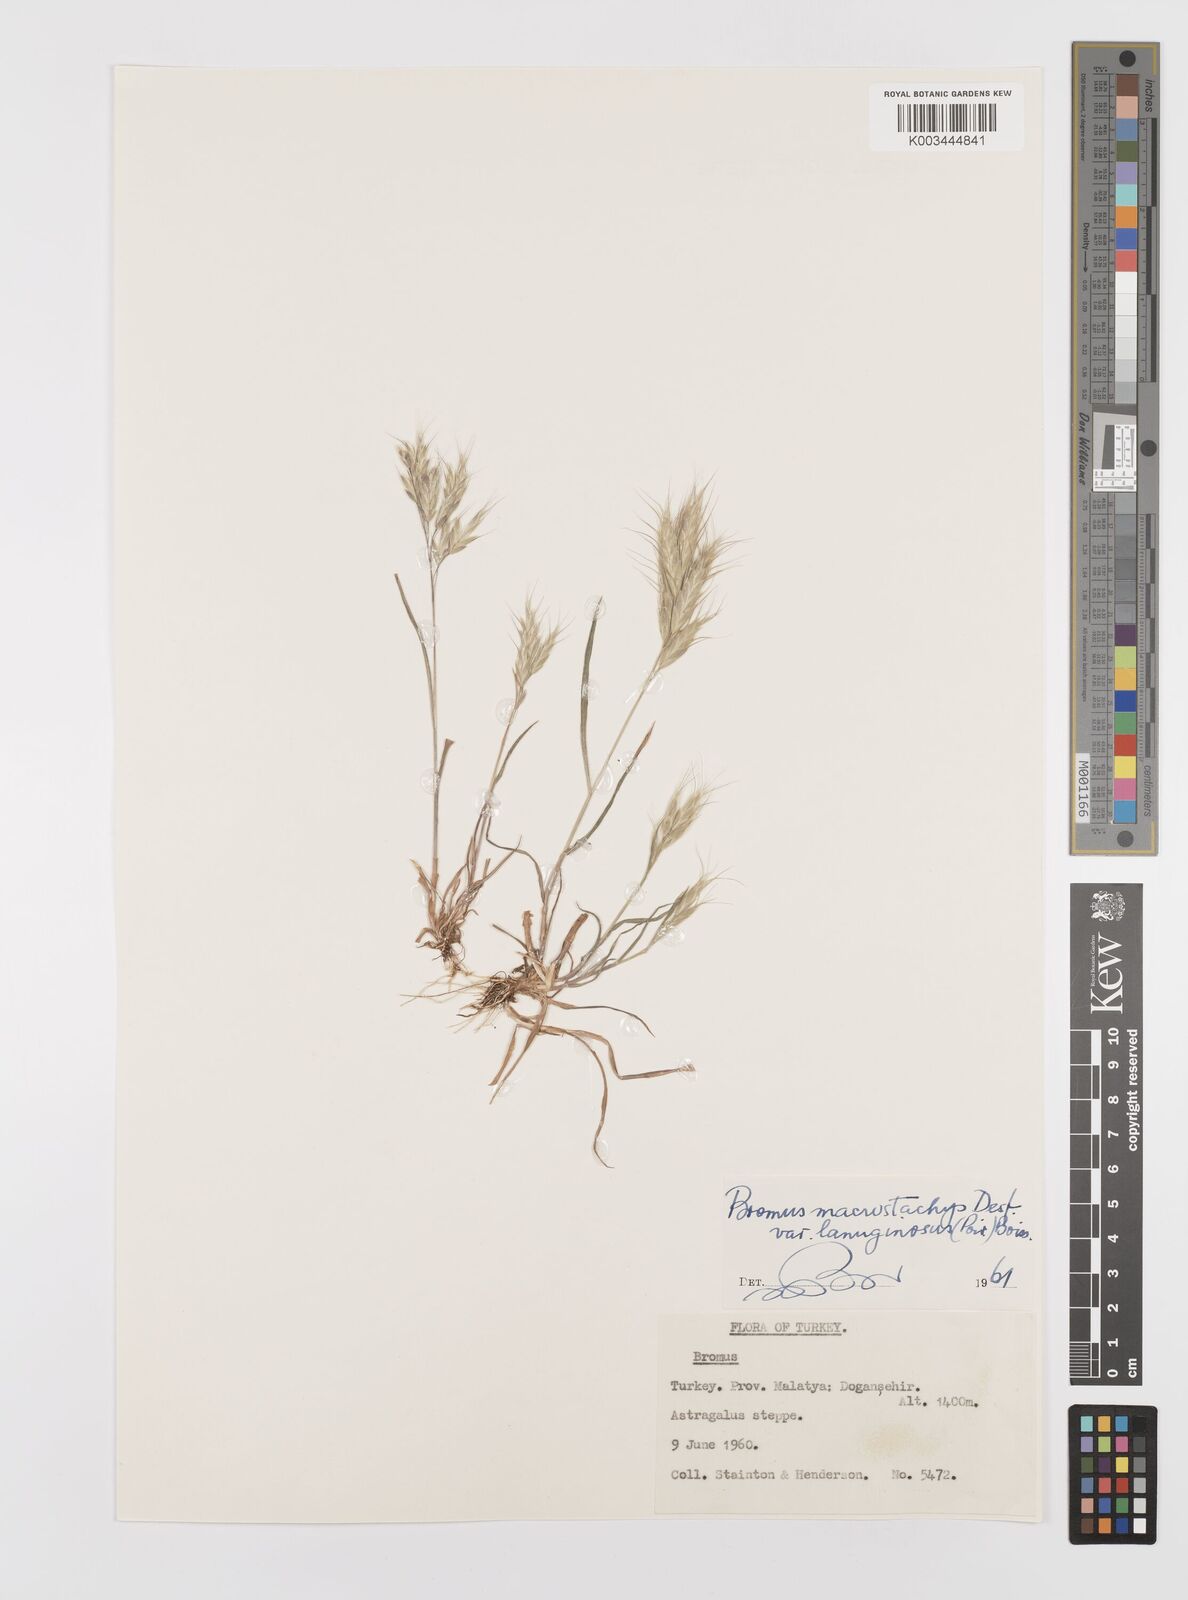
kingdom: Plantae
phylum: Tracheophyta
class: Liliopsida
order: Poales
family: Poaceae
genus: Bromus
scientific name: Bromus lanceolatus
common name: Mediterranean brome
